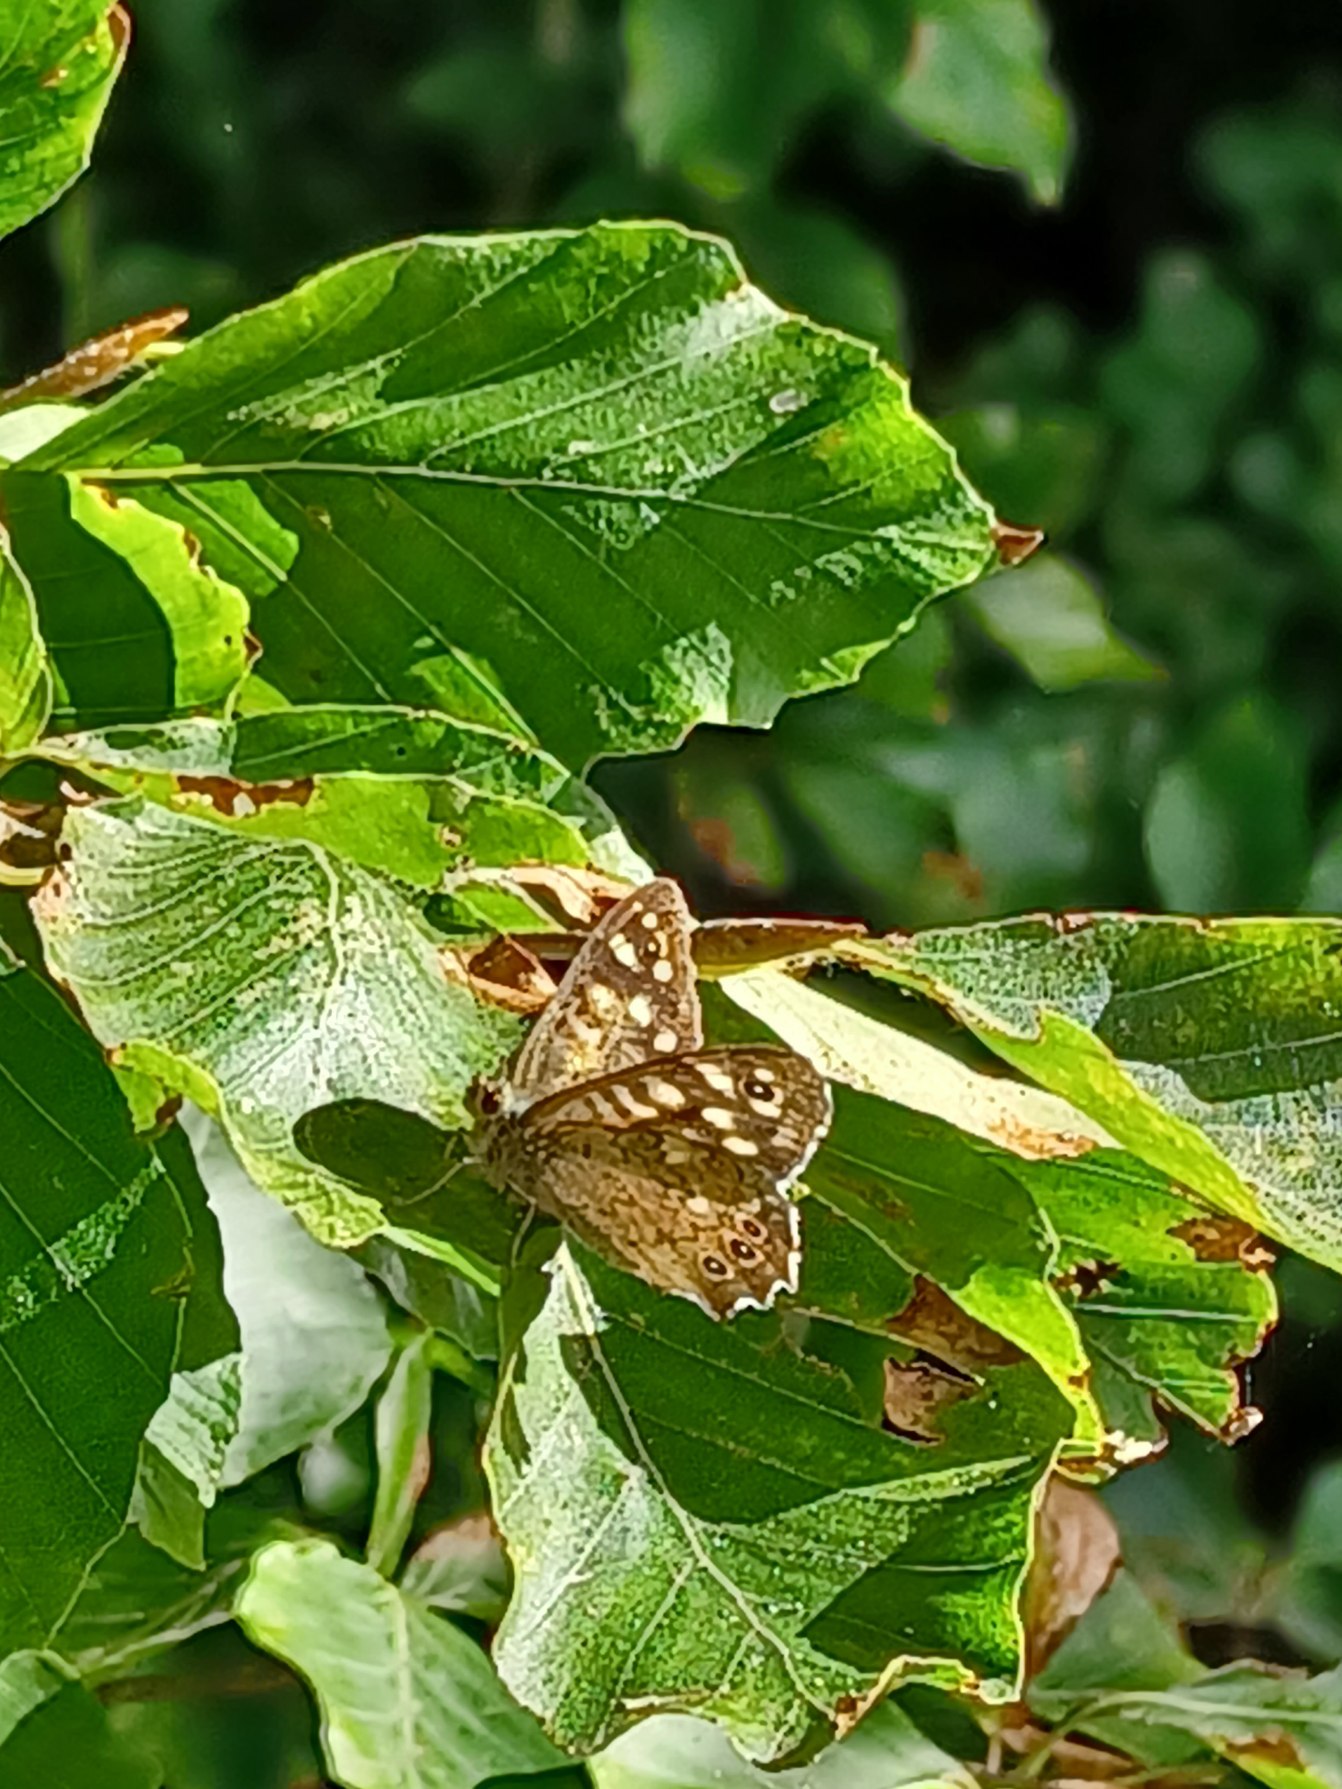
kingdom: Animalia
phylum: Arthropoda
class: Insecta
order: Lepidoptera
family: Nymphalidae
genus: Pararge
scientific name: Pararge aegeria
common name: Skovrandøje
